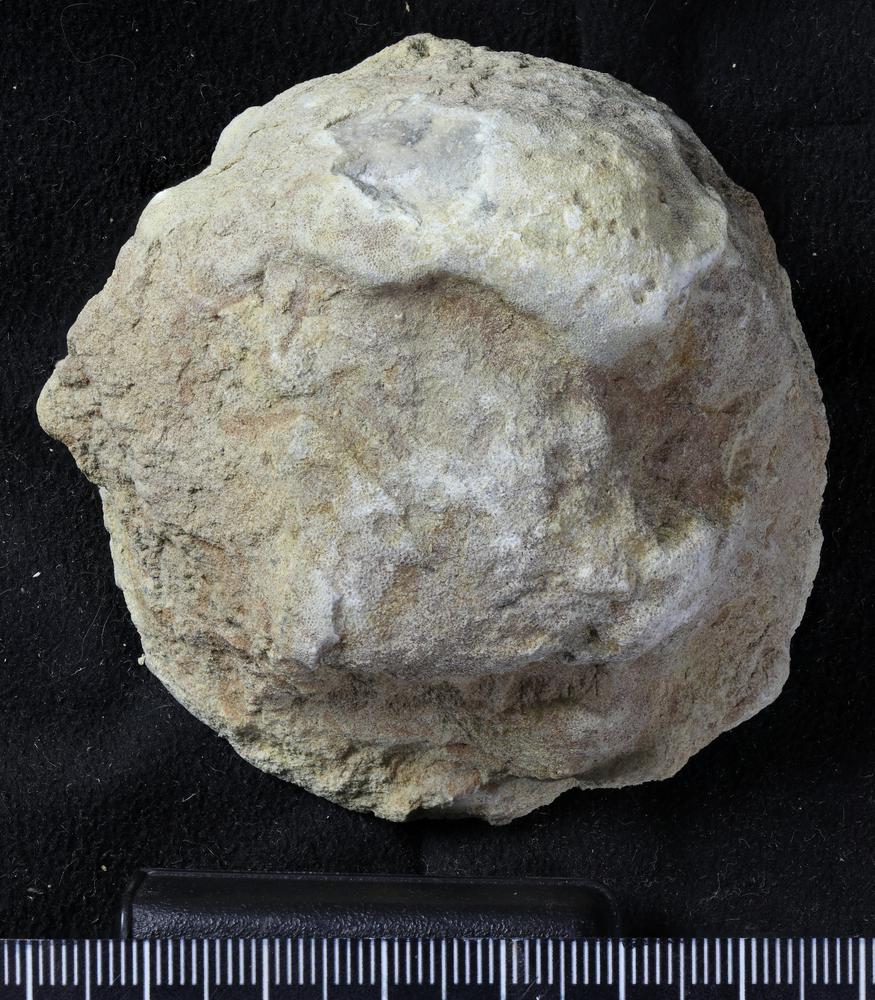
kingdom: Animalia
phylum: Bryozoa
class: Stenolaemata
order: Trepostomatida
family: Diplotrypidae
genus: Diplotrypa
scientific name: Diplotrypa petropolitana
